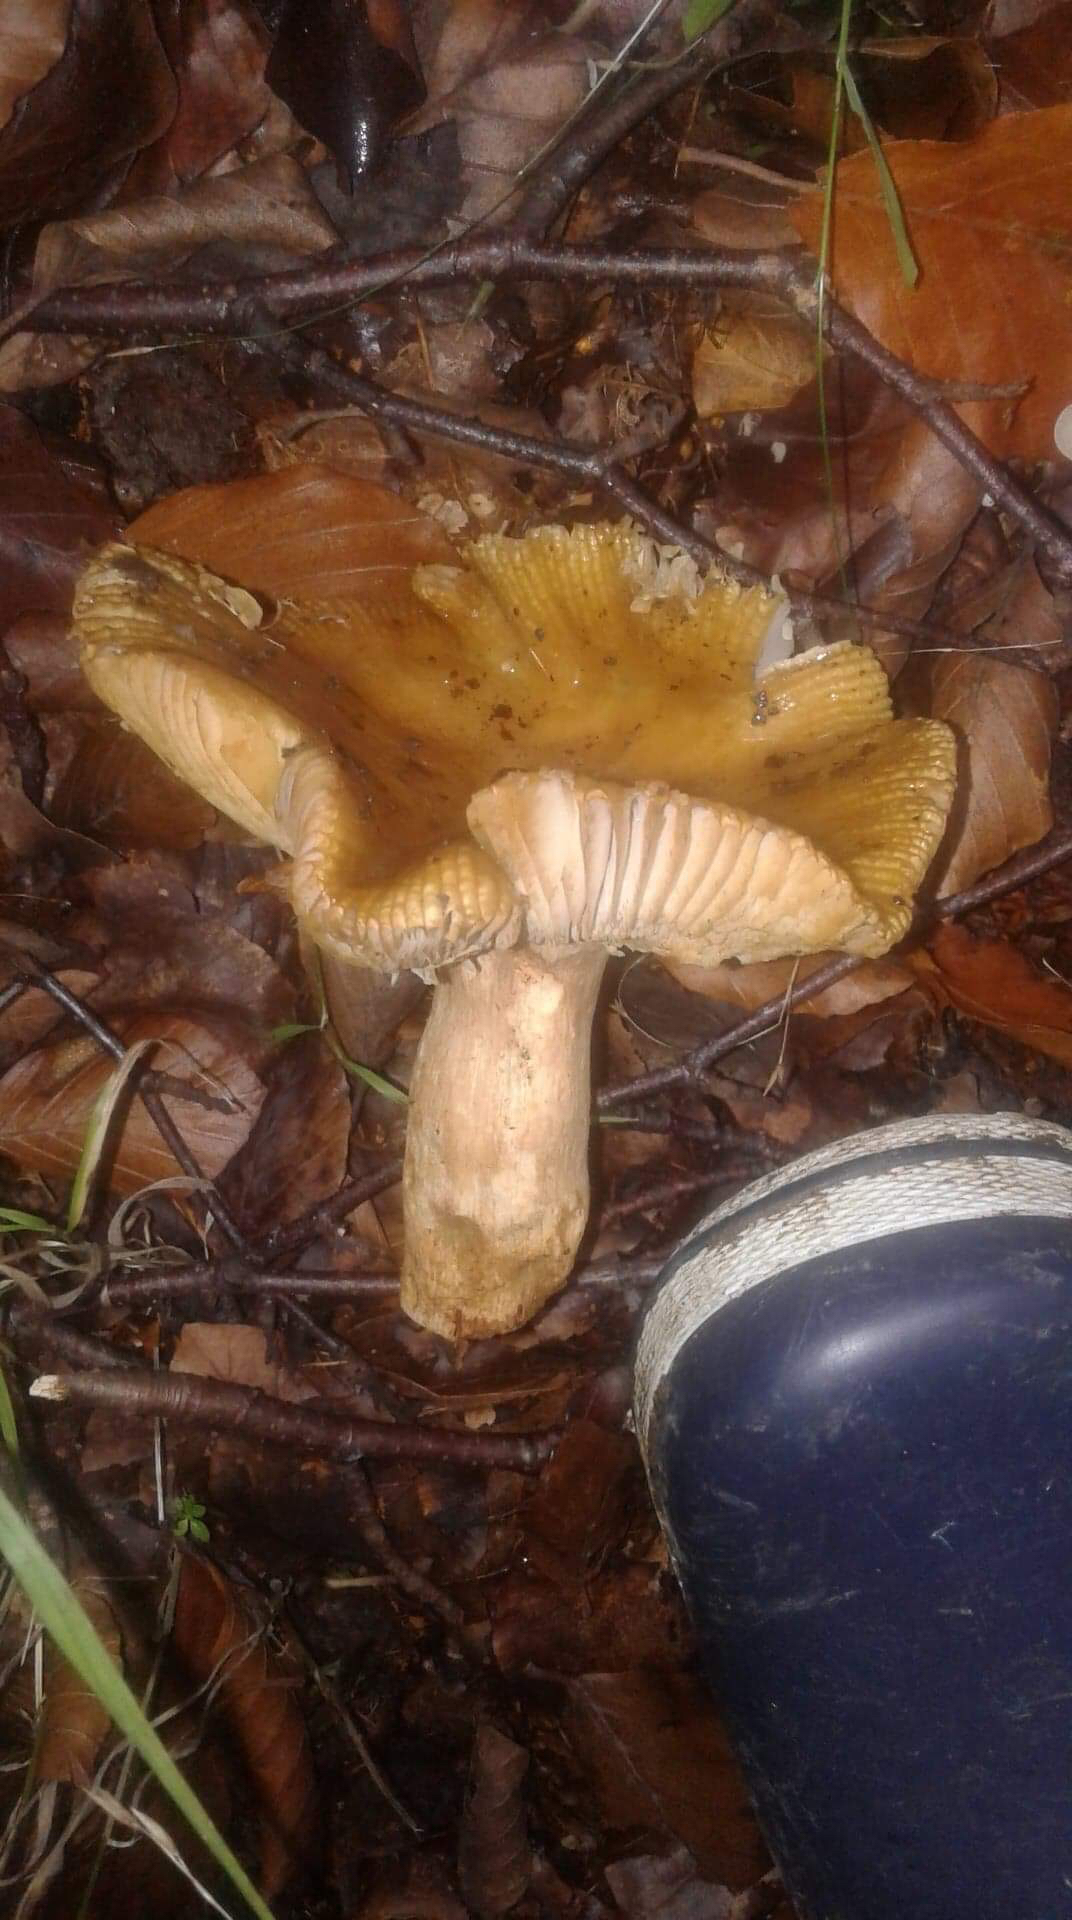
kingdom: Fungi
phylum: Basidiomycota
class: Agaricomycetes
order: Russulales
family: Russulaceae
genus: Russula
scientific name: Russula grata
